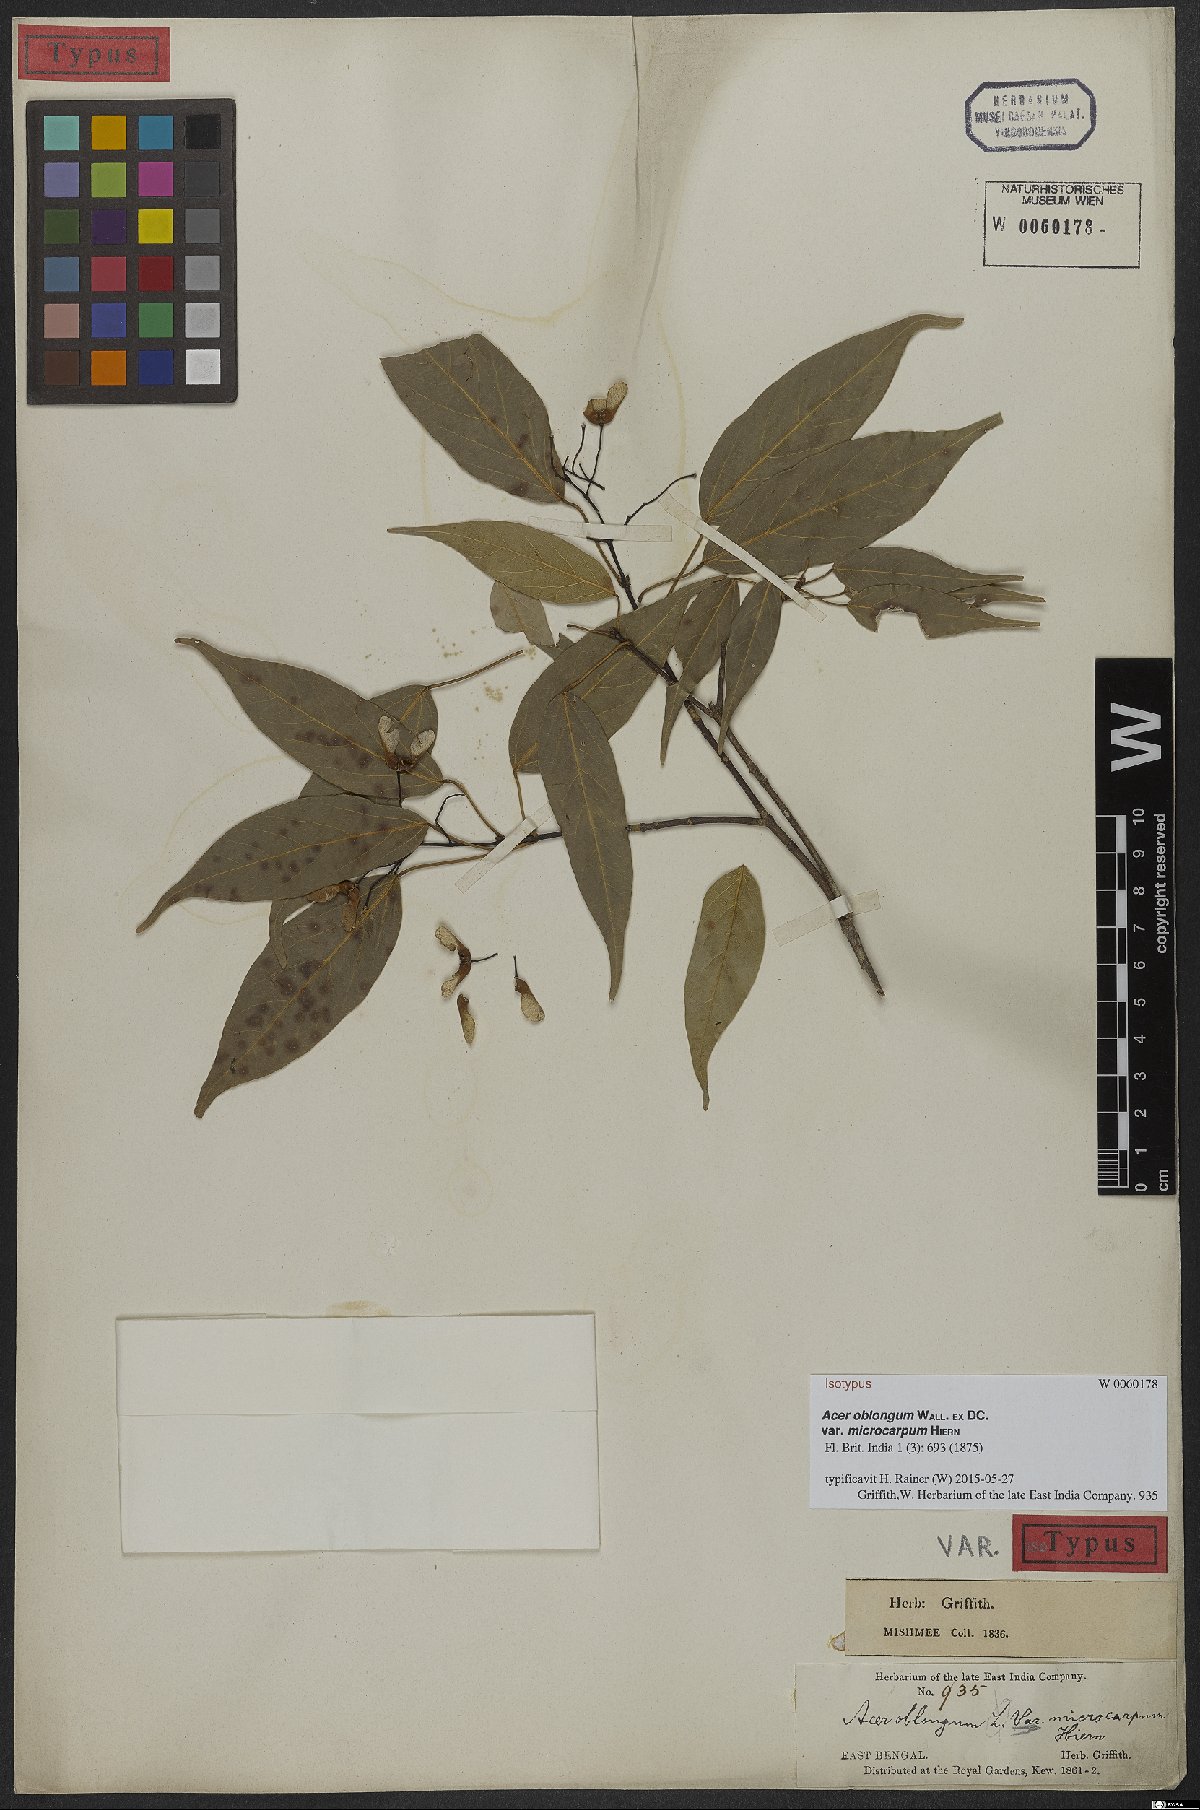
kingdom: Plantae
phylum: Tracheophyta
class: Magnoliopsida
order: Sapindales
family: Sapindaceae
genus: Acer
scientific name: Acer oblongum
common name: Himalayan maple
